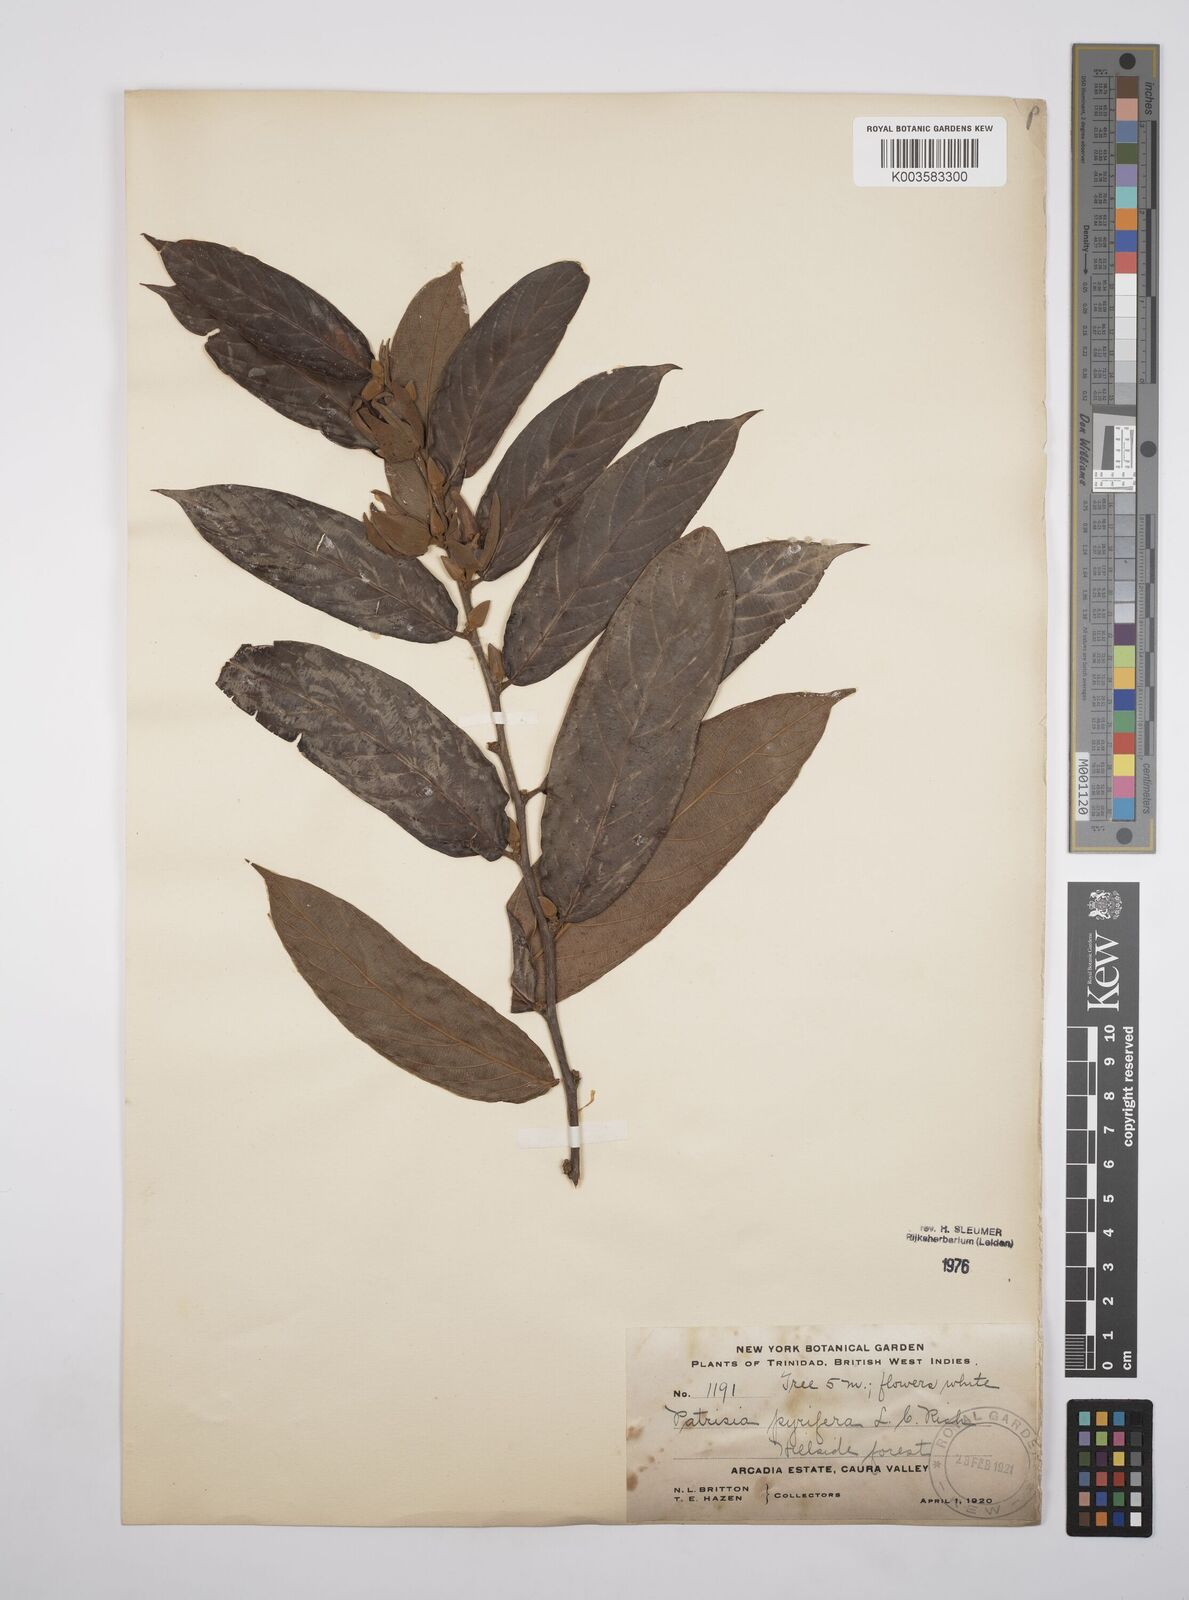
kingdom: Plantae
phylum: Tracheophyta
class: Magnoliopsida
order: Malpighiales
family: Salicaceae
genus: Ryania
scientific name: Ryania speciosa
